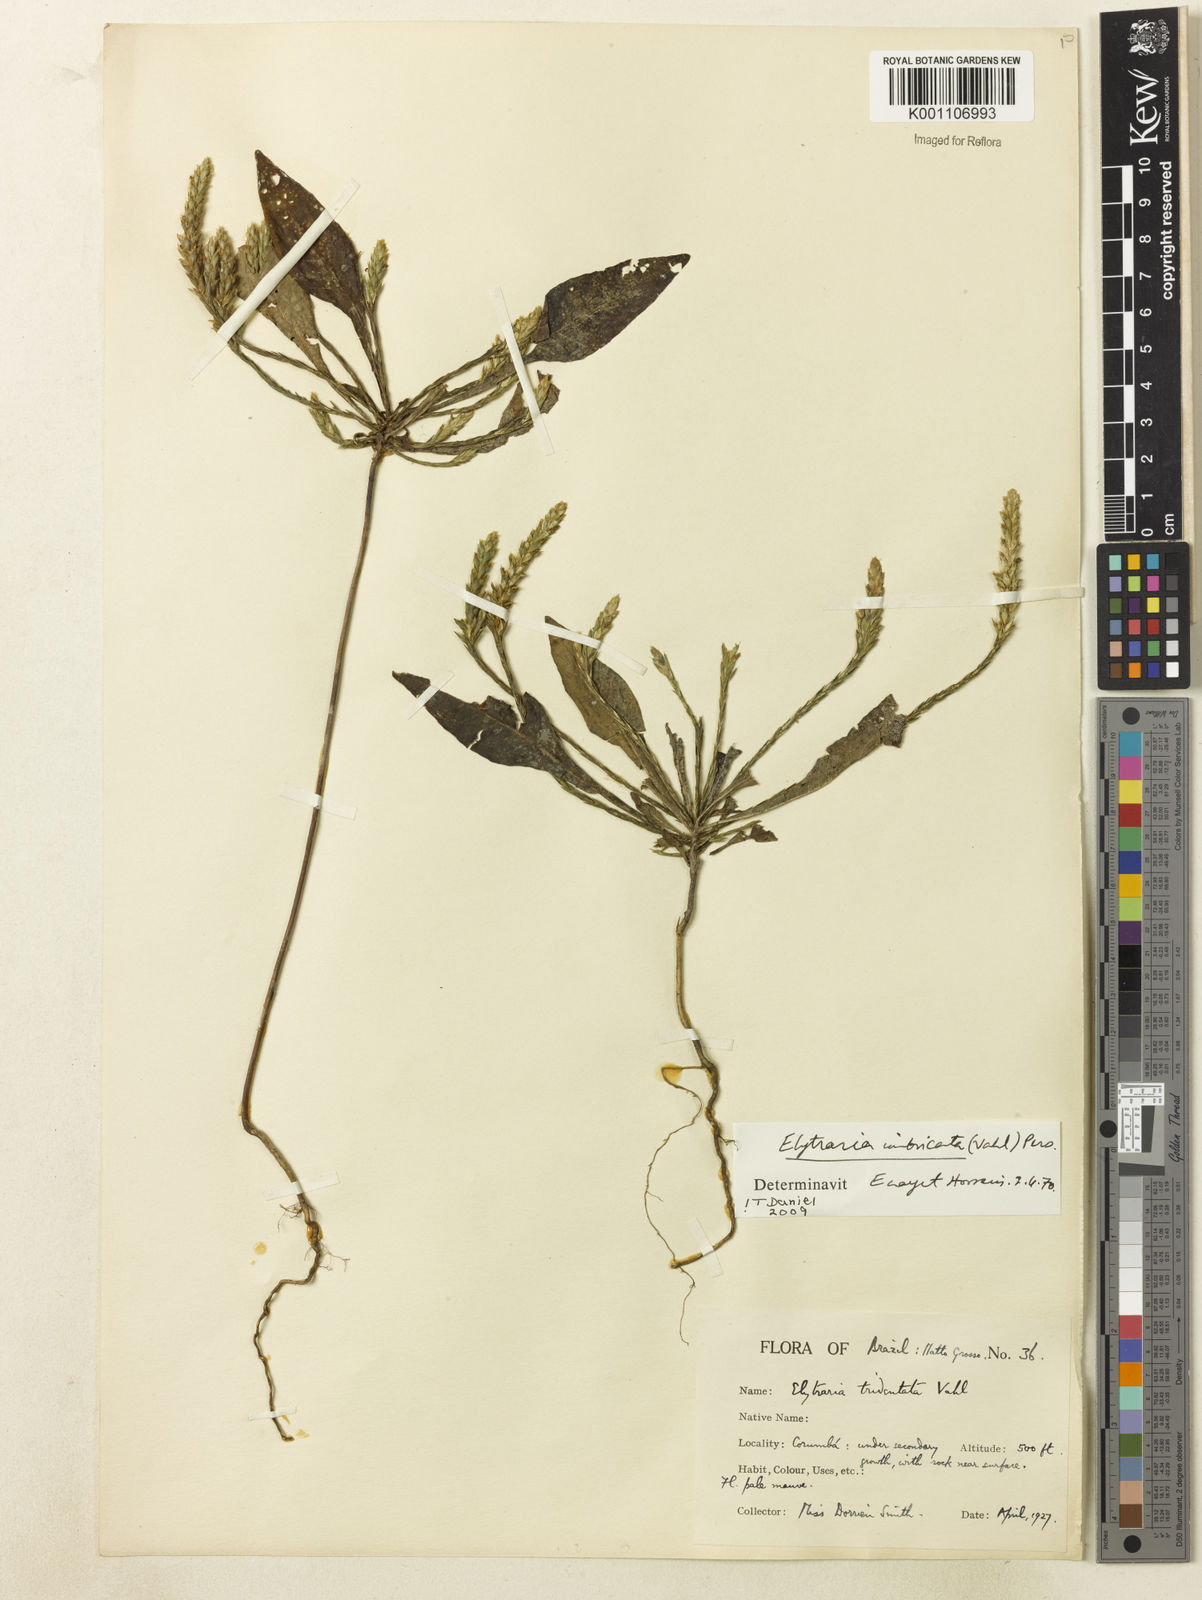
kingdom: Plantae
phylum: Tracheophyta
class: Magnoliopsida
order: Lamiales
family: Acanthaceae
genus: Elytraria
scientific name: Elytraria imbricata
